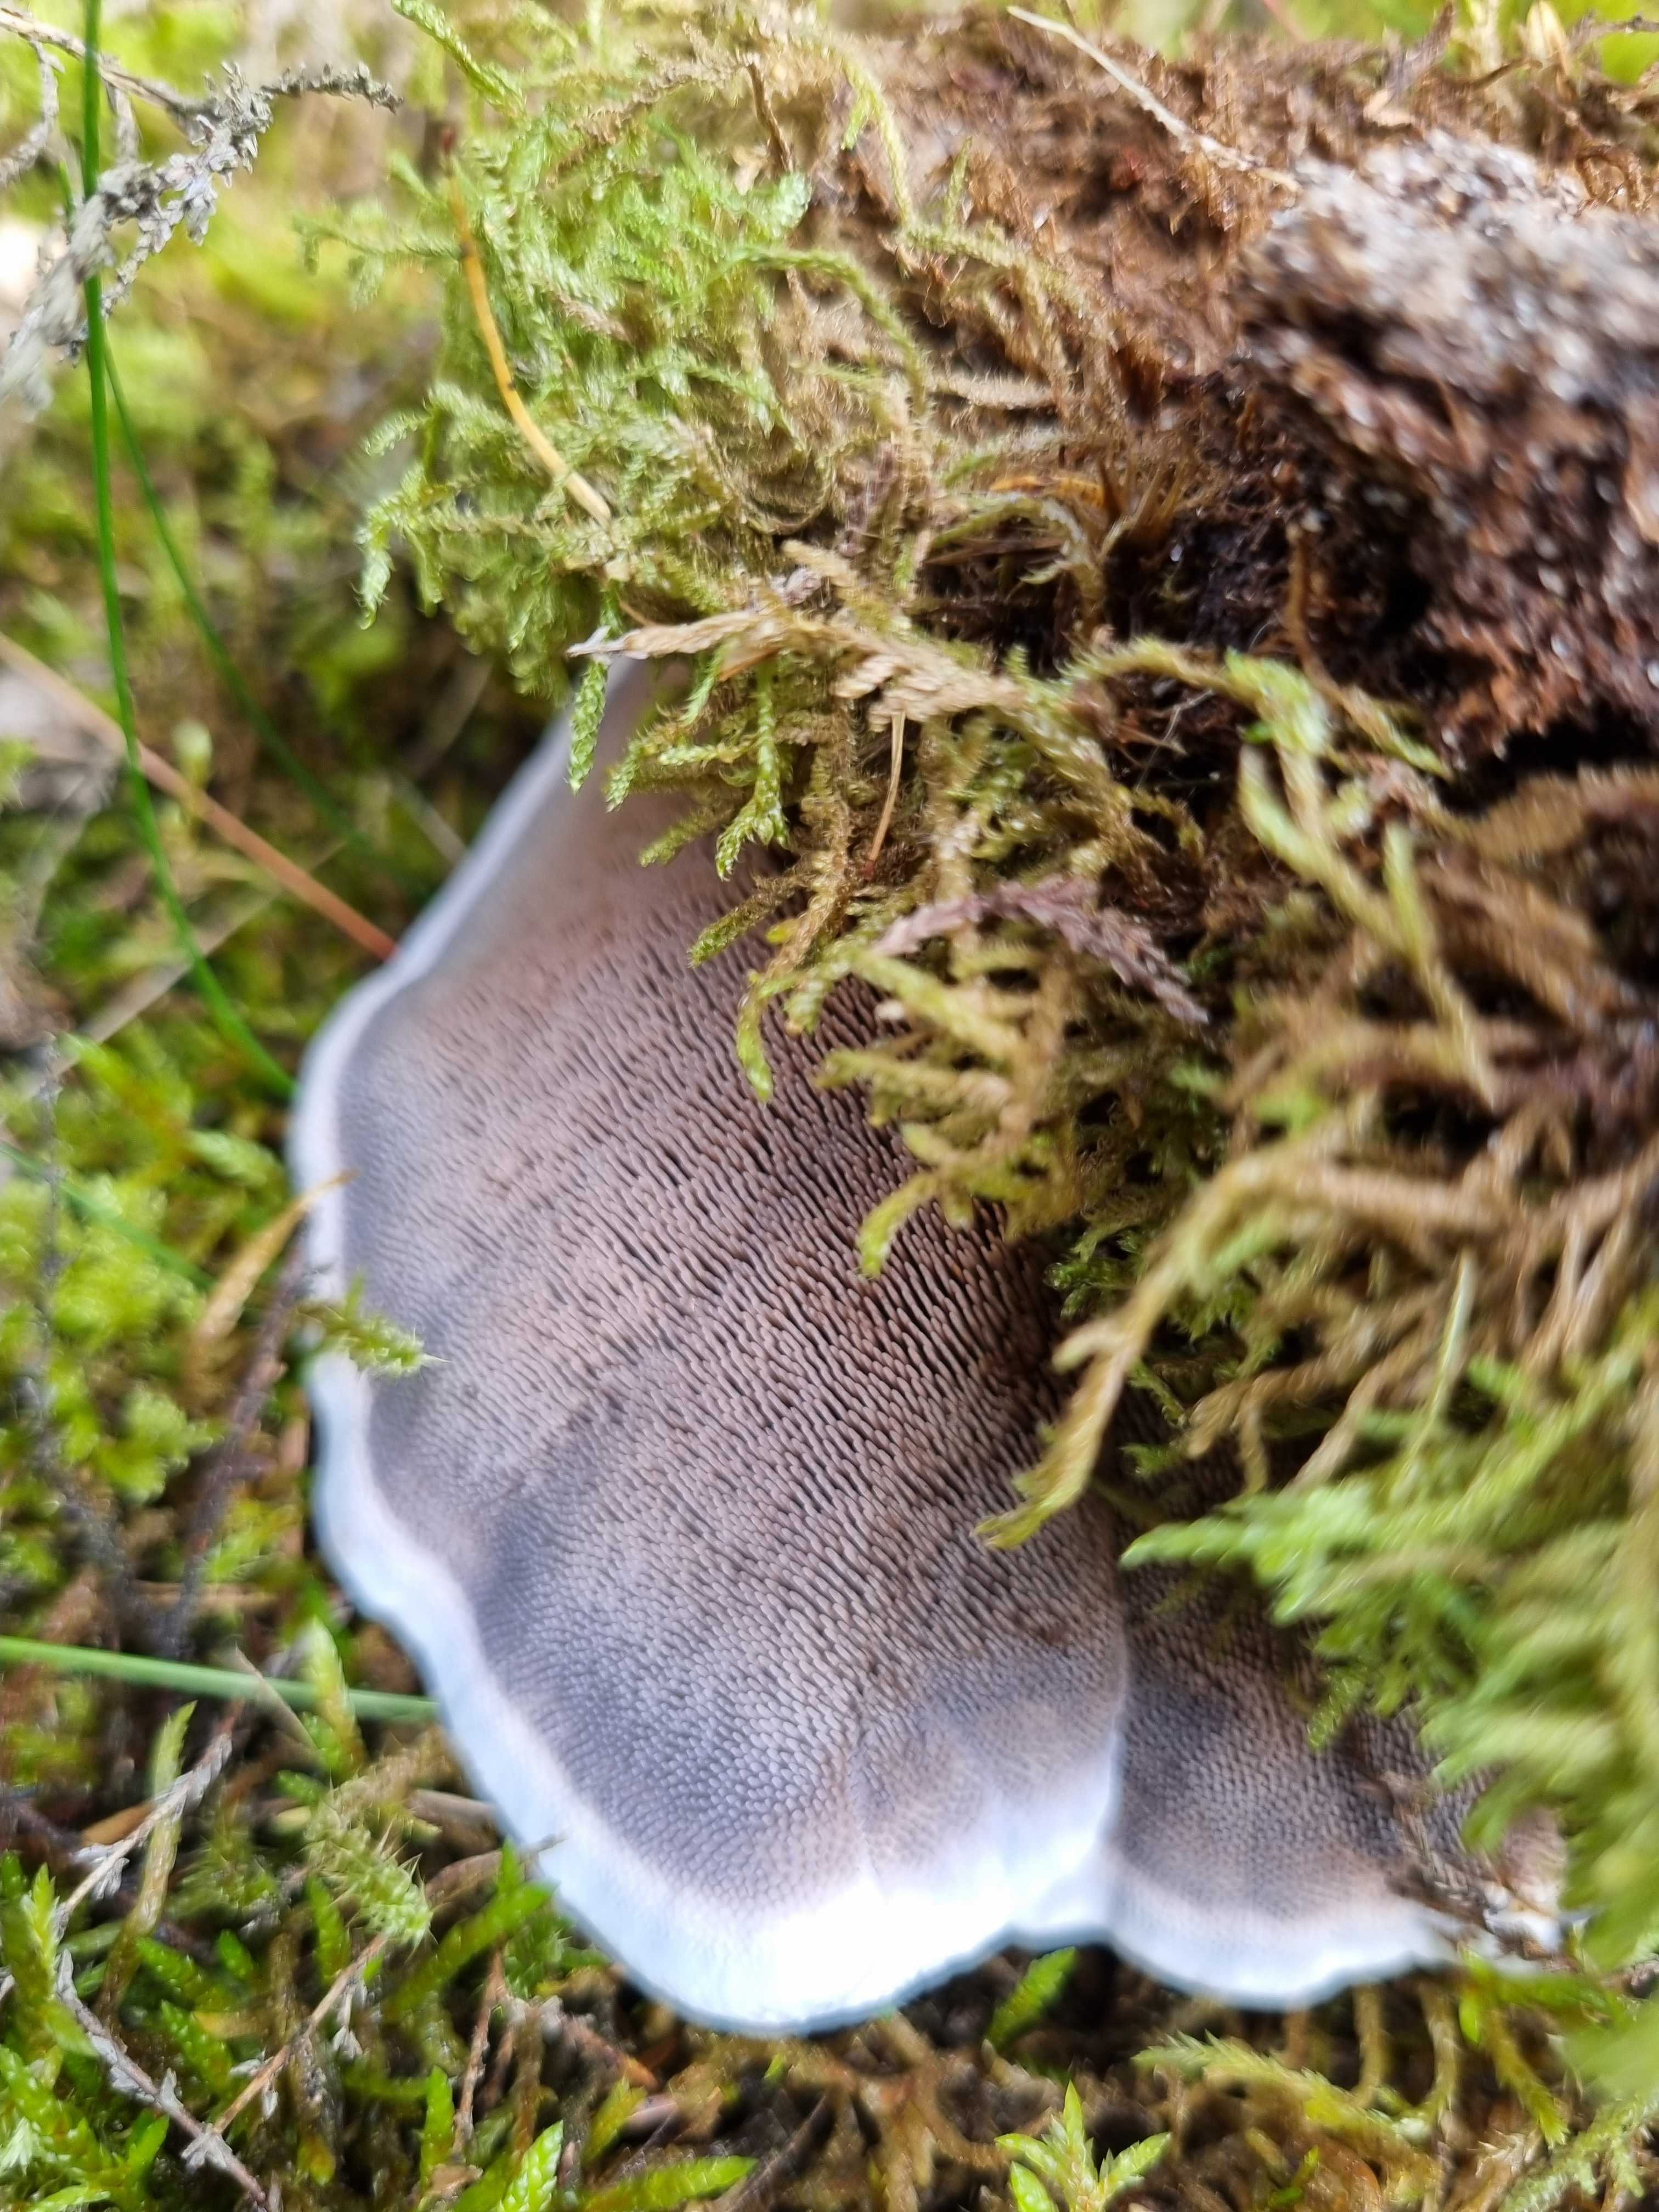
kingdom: Fungi
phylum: Basidiomycota
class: Agaricomycetes
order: Thelephorales
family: Bankeraceae
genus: Hydnellum
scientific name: Hydnellum caeruleum
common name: blålig korkpigsvamp
